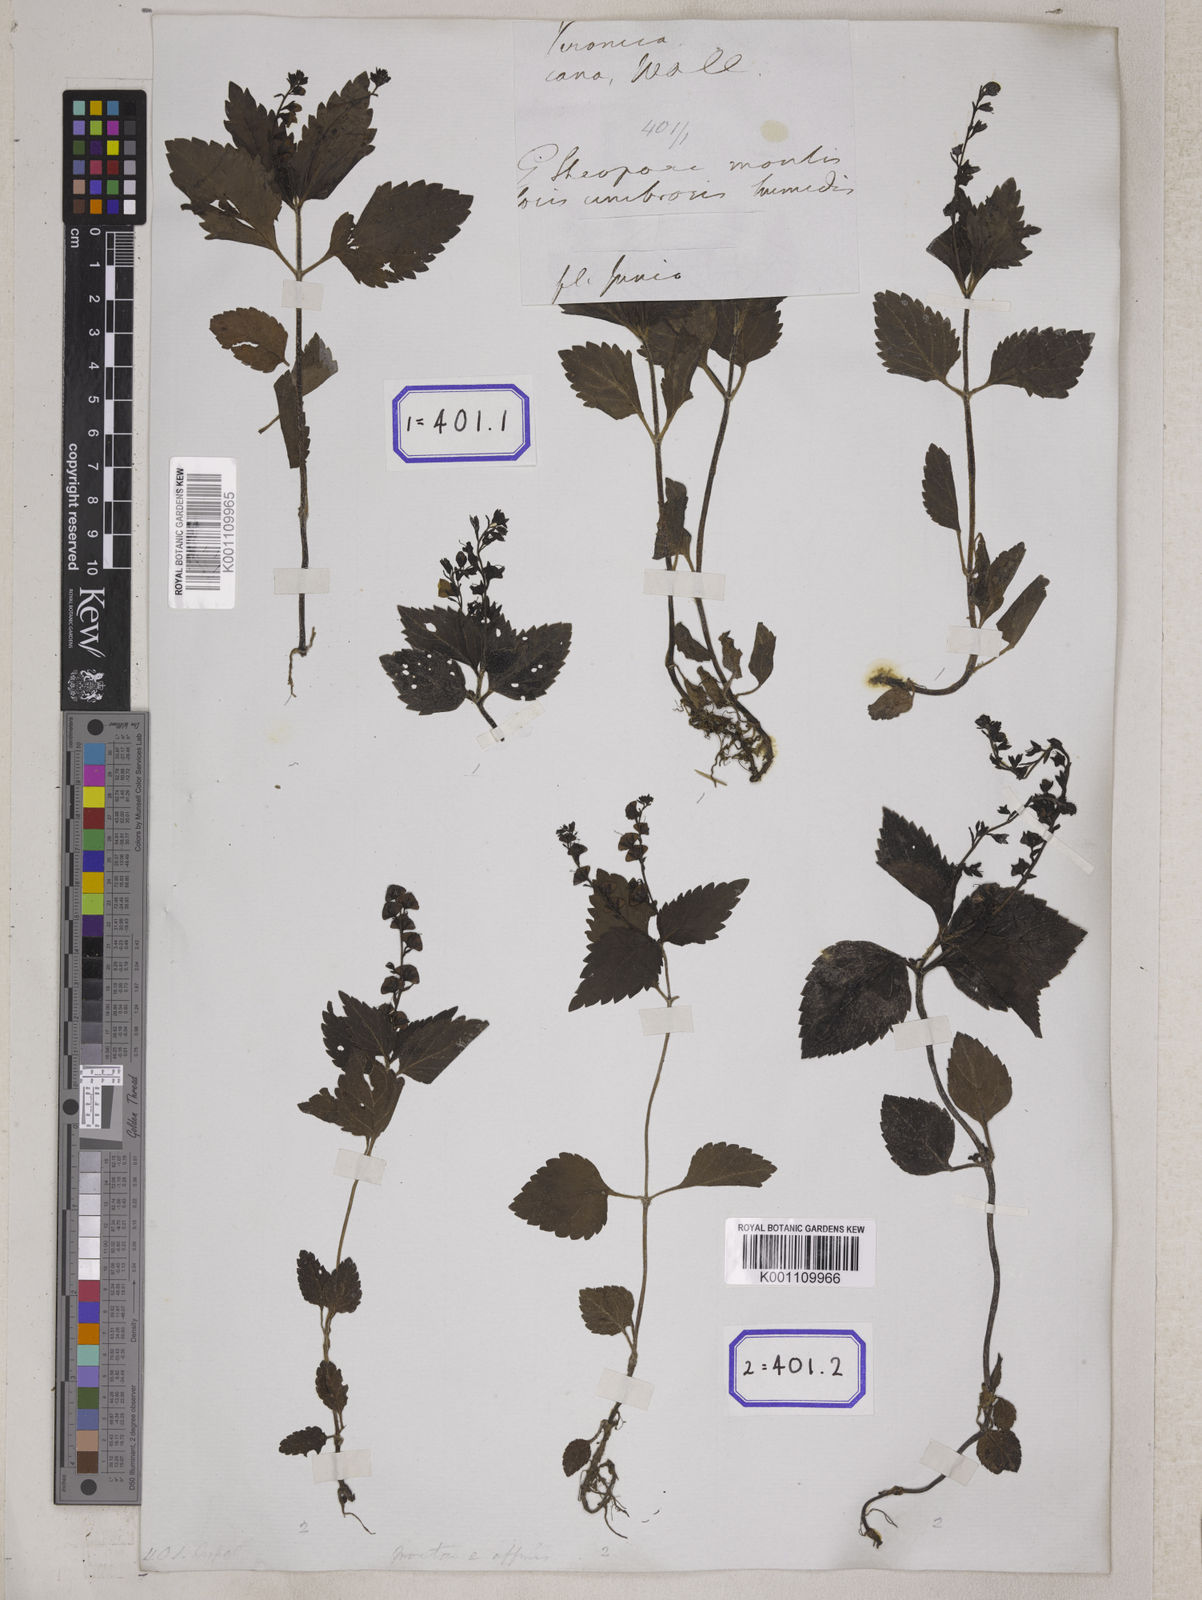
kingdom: Plantae
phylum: Tracheophyta
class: Magnoliopsida
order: Lamiales
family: Plantaginaceae
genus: Veronica
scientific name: Veronica
